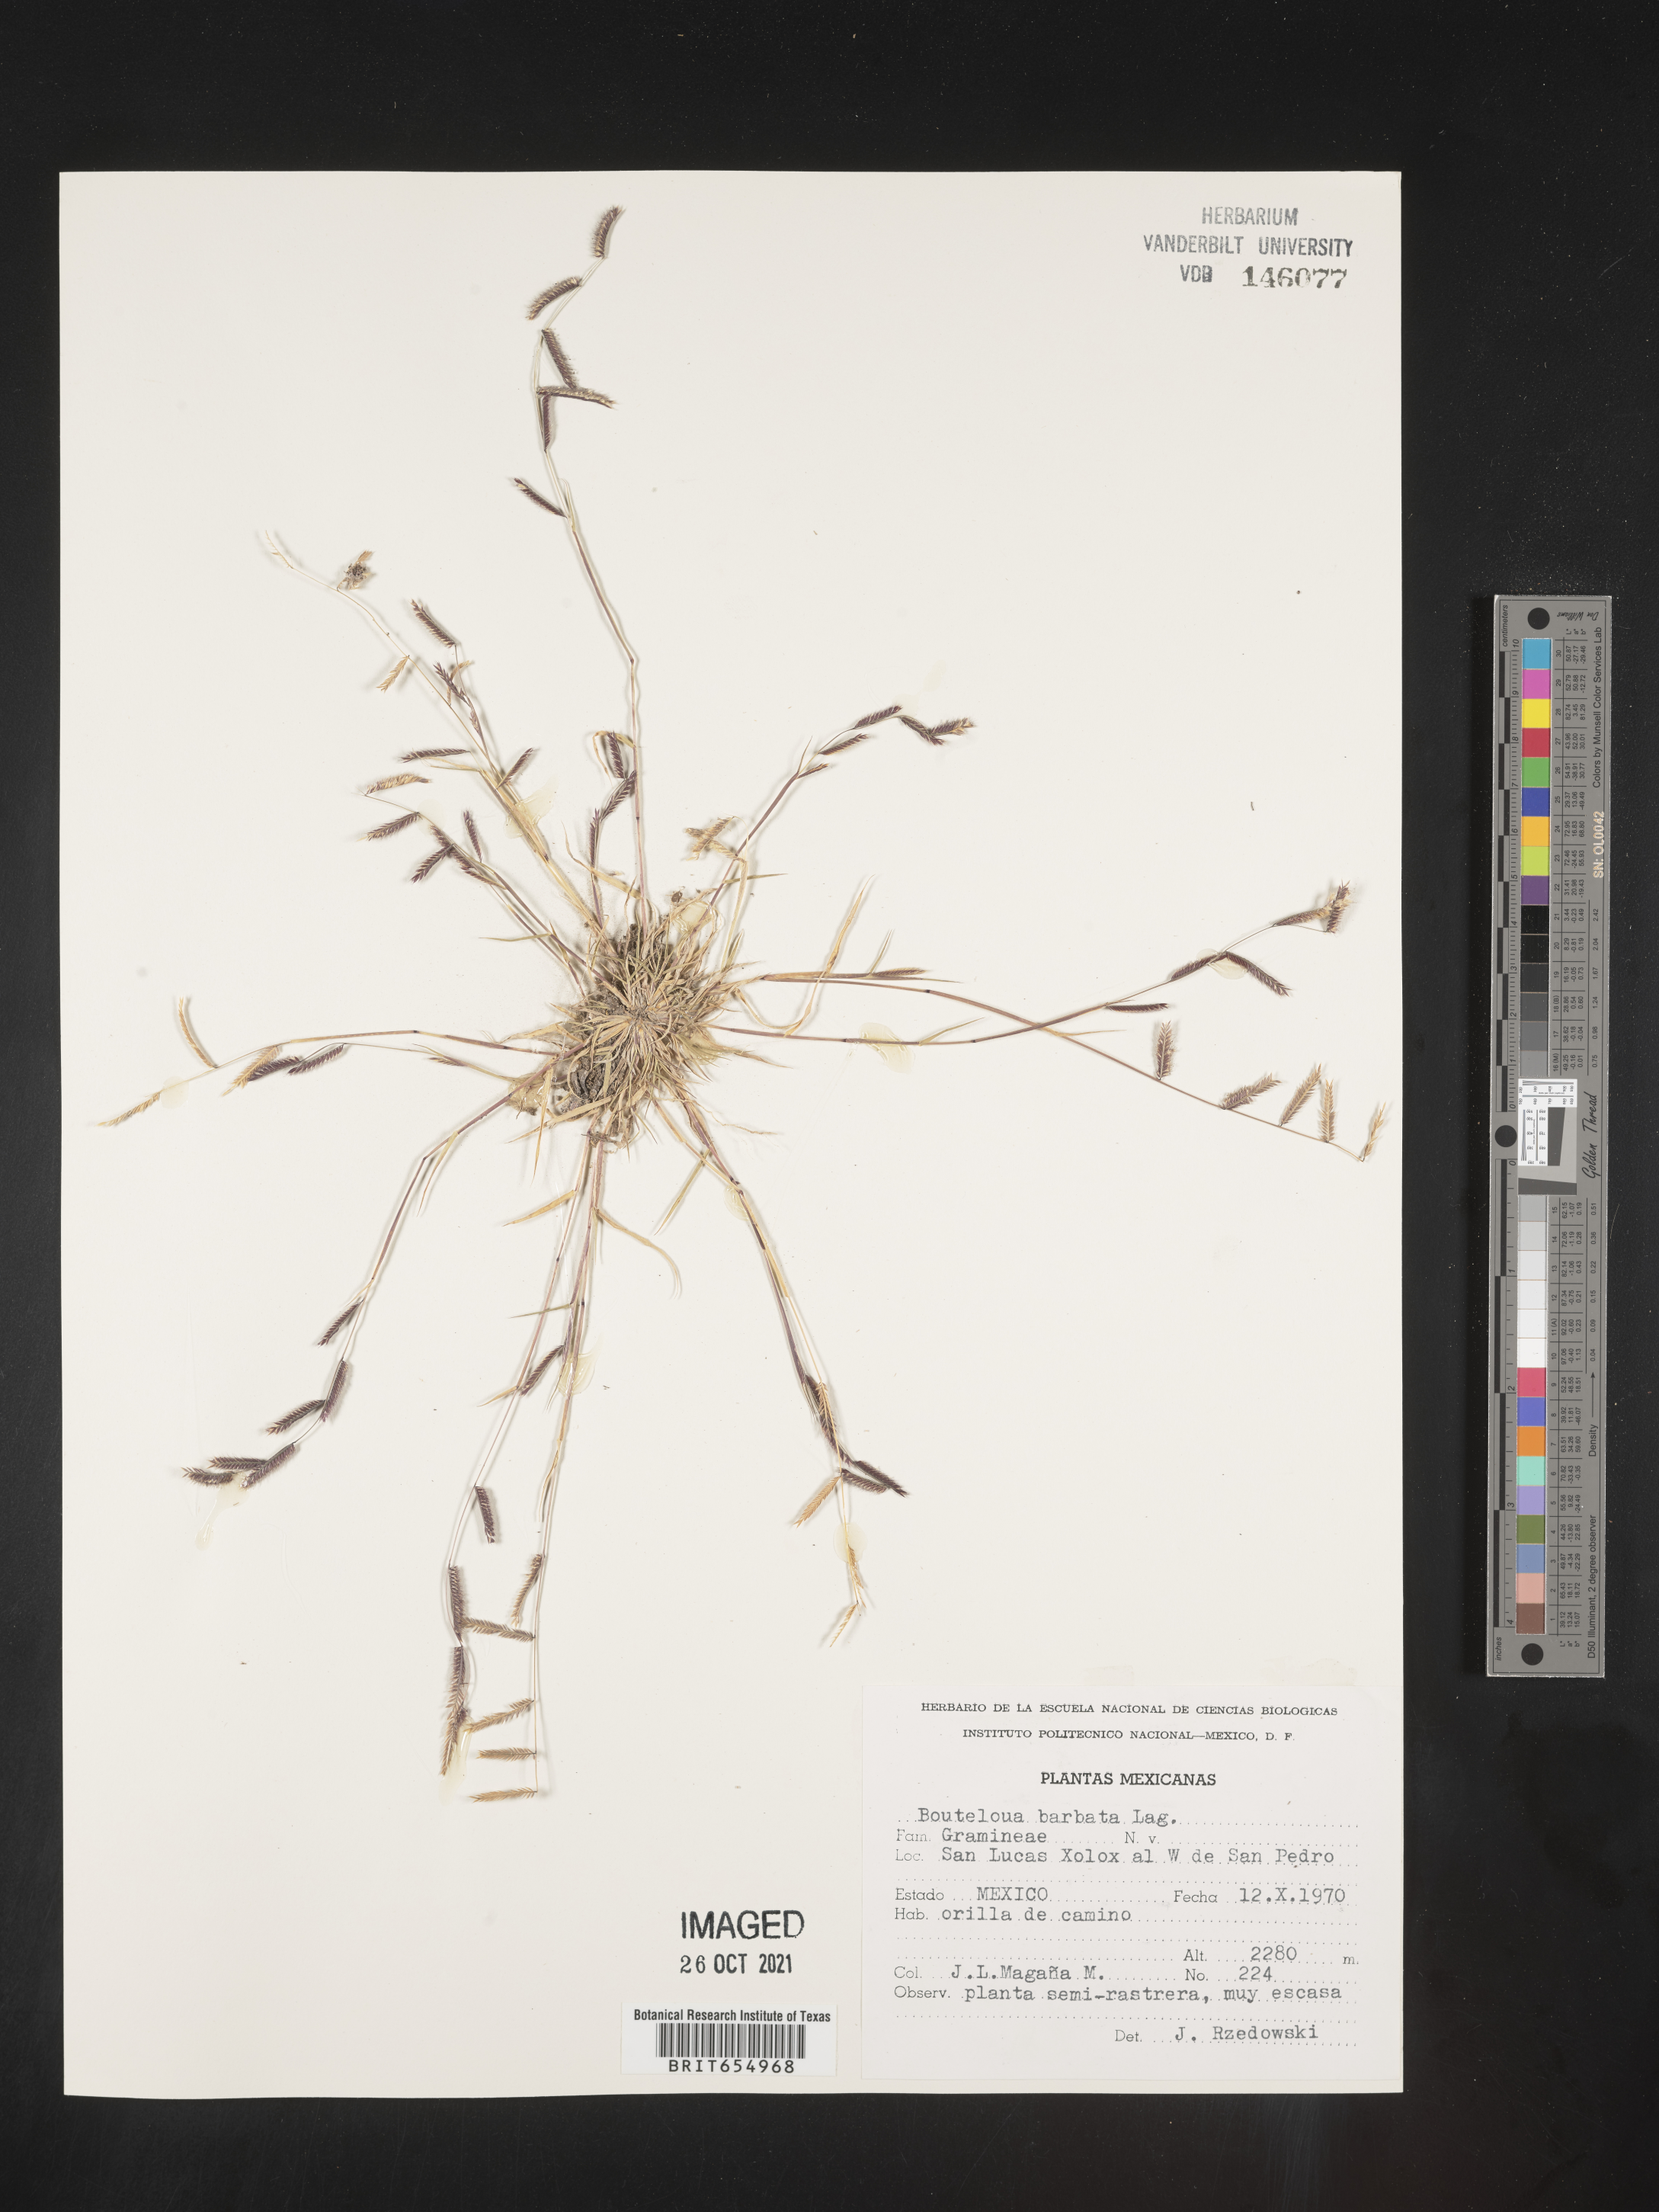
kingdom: Plantae
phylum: Tracheophyta
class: Liliopsida
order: Poales
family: Poaceae
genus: Bouteloua
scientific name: Bouteloua
